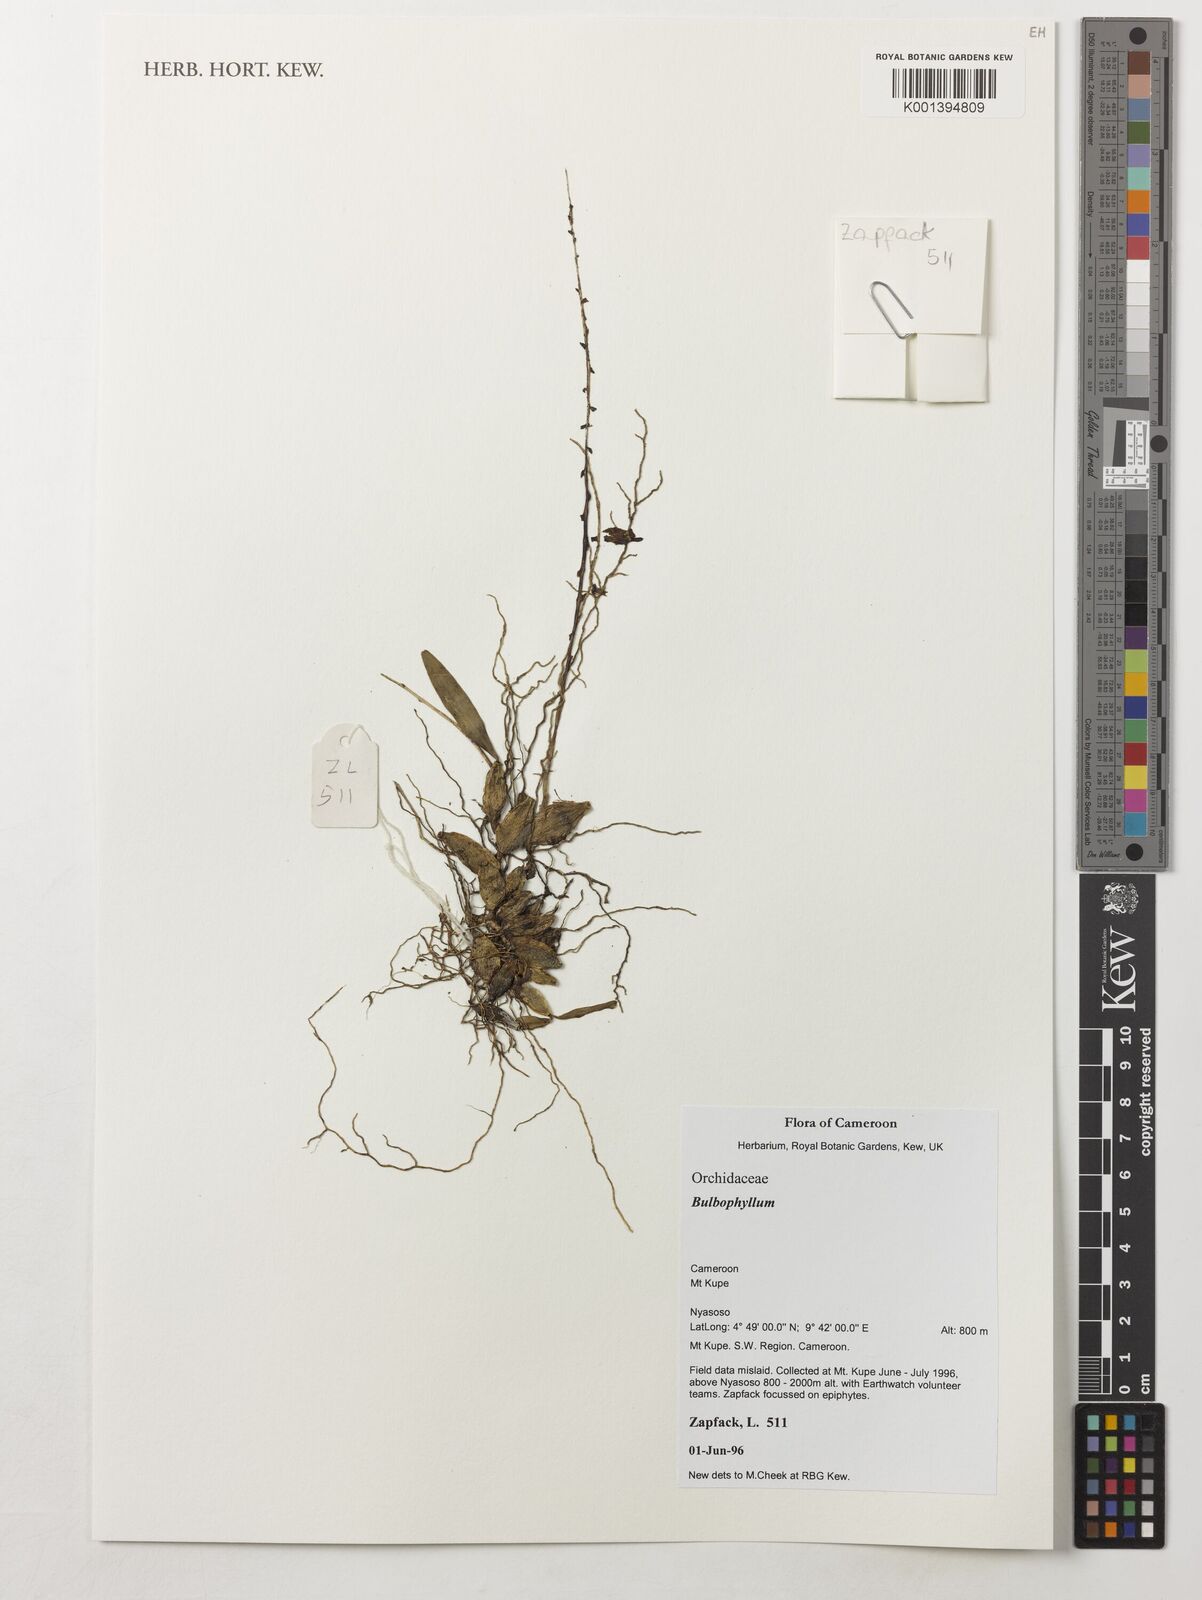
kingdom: Plantae
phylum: Tracheophyta
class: Liliopsida
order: Asparagales
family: Orchidaceae
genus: Bulbophyllum
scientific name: Bulbophyllum
